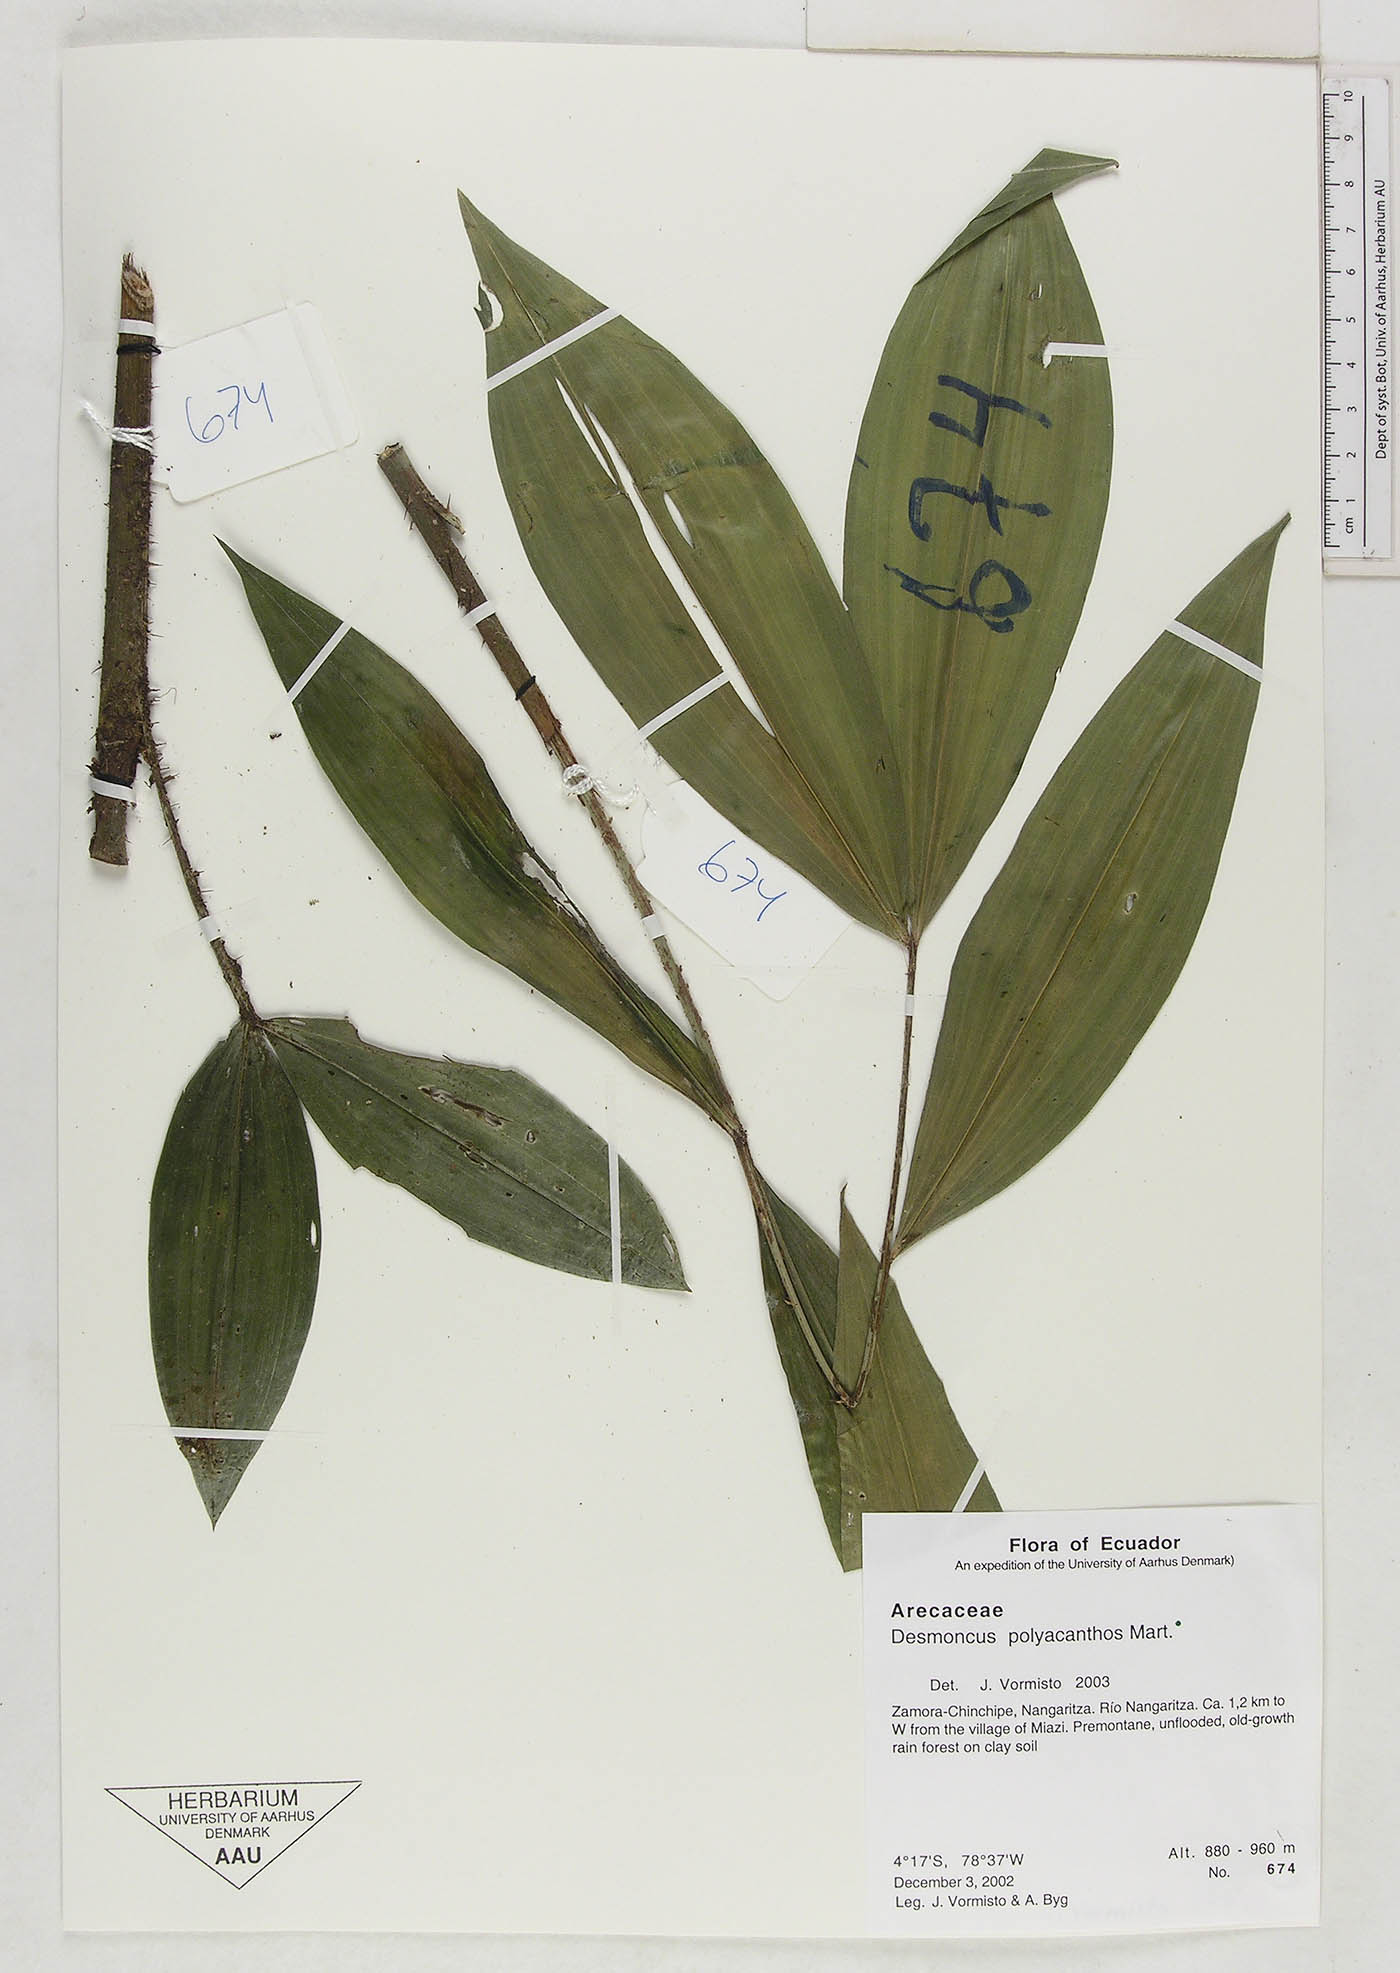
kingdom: Plantae
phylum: Tracheophyta
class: Liliopsida
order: Arecales
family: Arecaceae
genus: Desmoncus
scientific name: Desmoncus polyacanthos
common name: Suriname bramble palm
